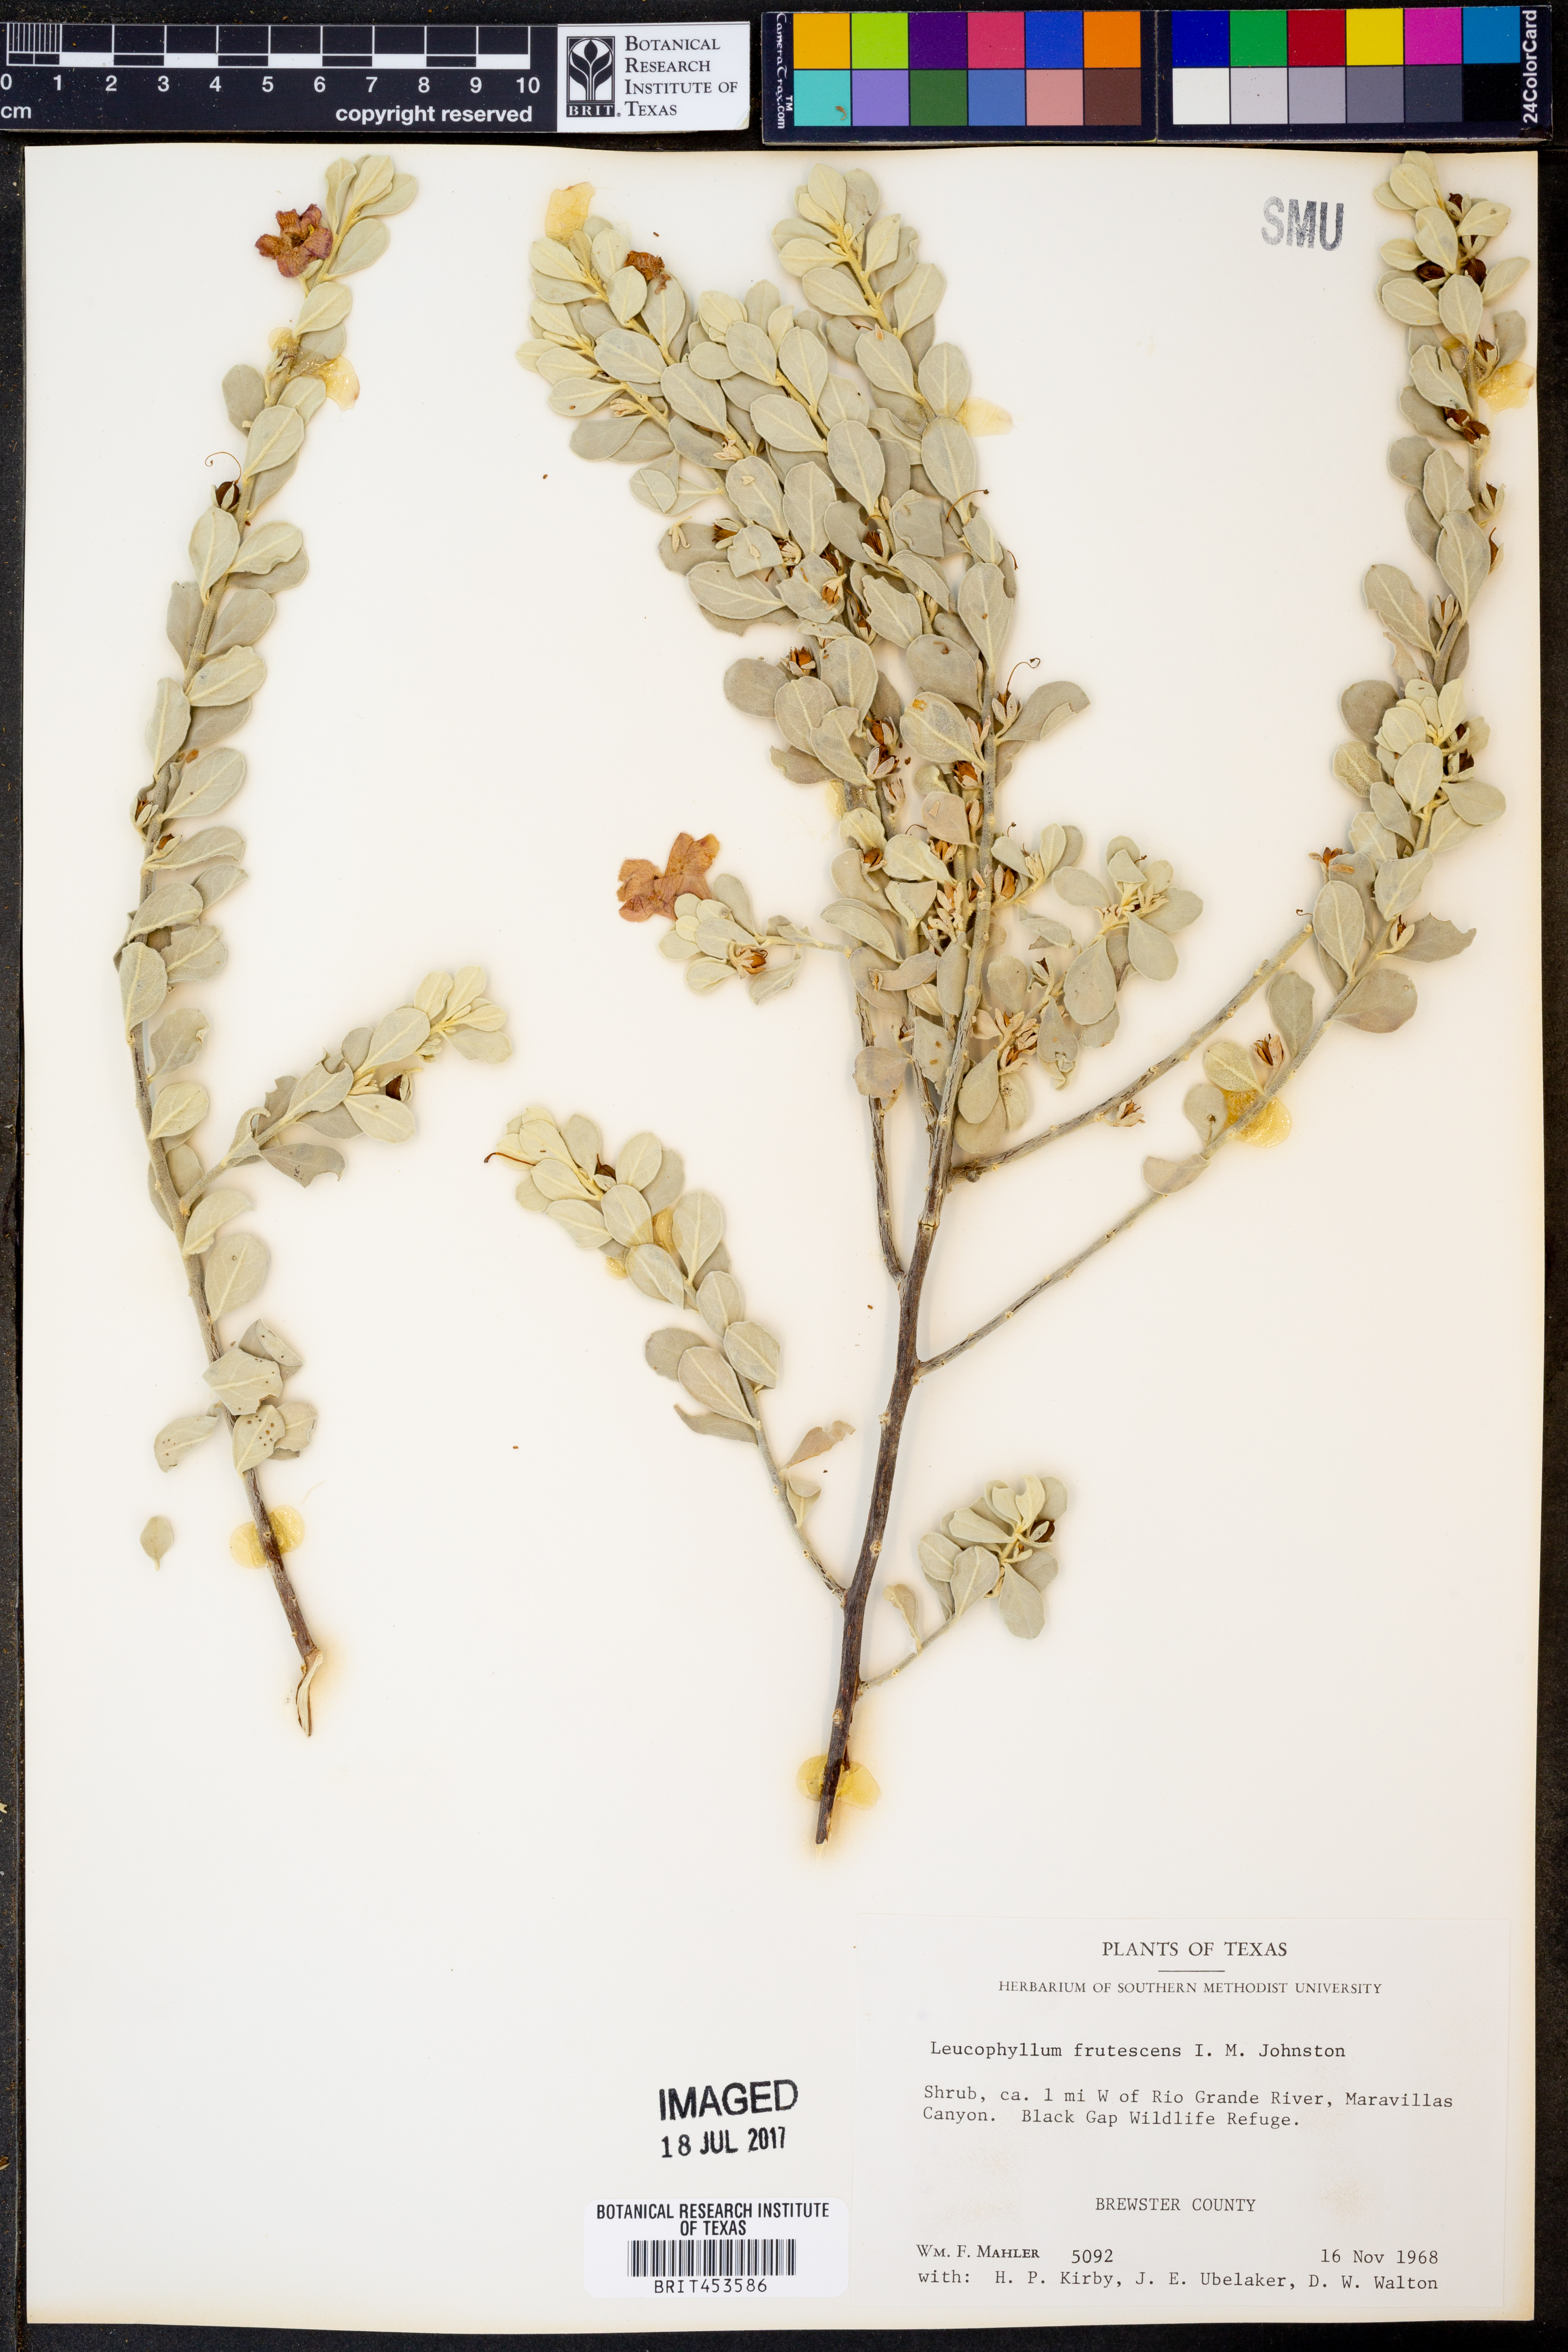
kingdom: Plantae
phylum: Tracheophyta
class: Magnoliopsida
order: Lamiales
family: Scrophulariaceae
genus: Leucophyllum
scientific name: Leucophyllum frutescens
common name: Texas silverleaf
